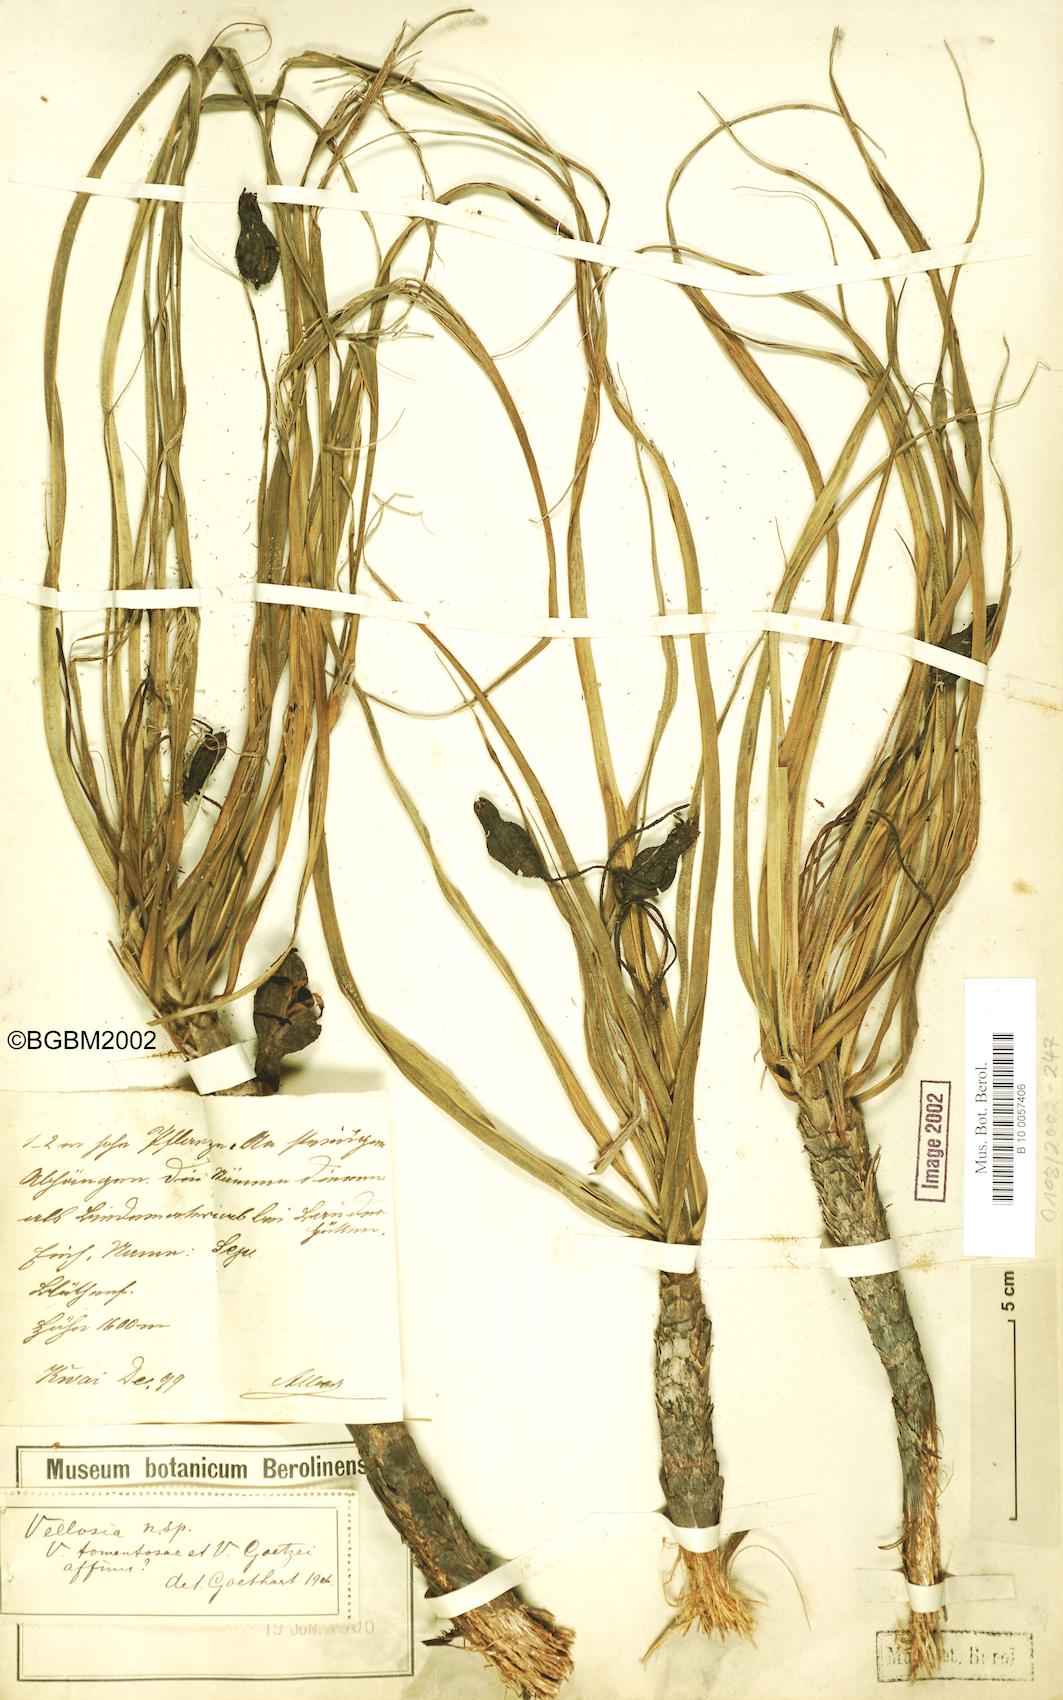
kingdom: Plantae
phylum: Tracheophyta
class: Liliopsida
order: Pandanales
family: Velloziaceae
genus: Xerophyta
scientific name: Xerophyta
